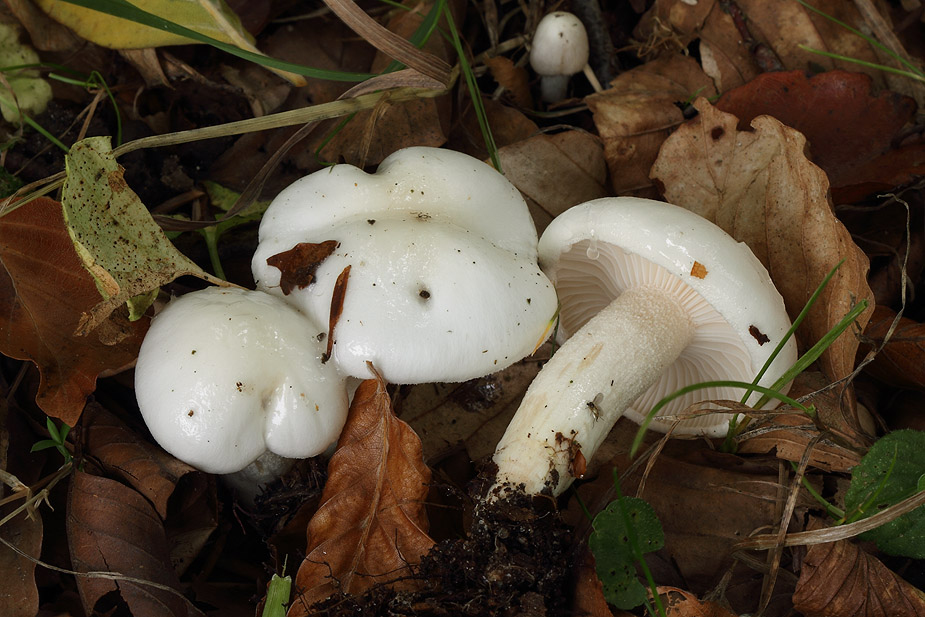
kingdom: Fungi
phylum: Basidiomycota
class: Agaricomycetes
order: Agaricales
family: Hygrophoraceae
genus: Hygrophorus
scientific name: Hygrophorus eburneus
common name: elfenbens-sneglehat
